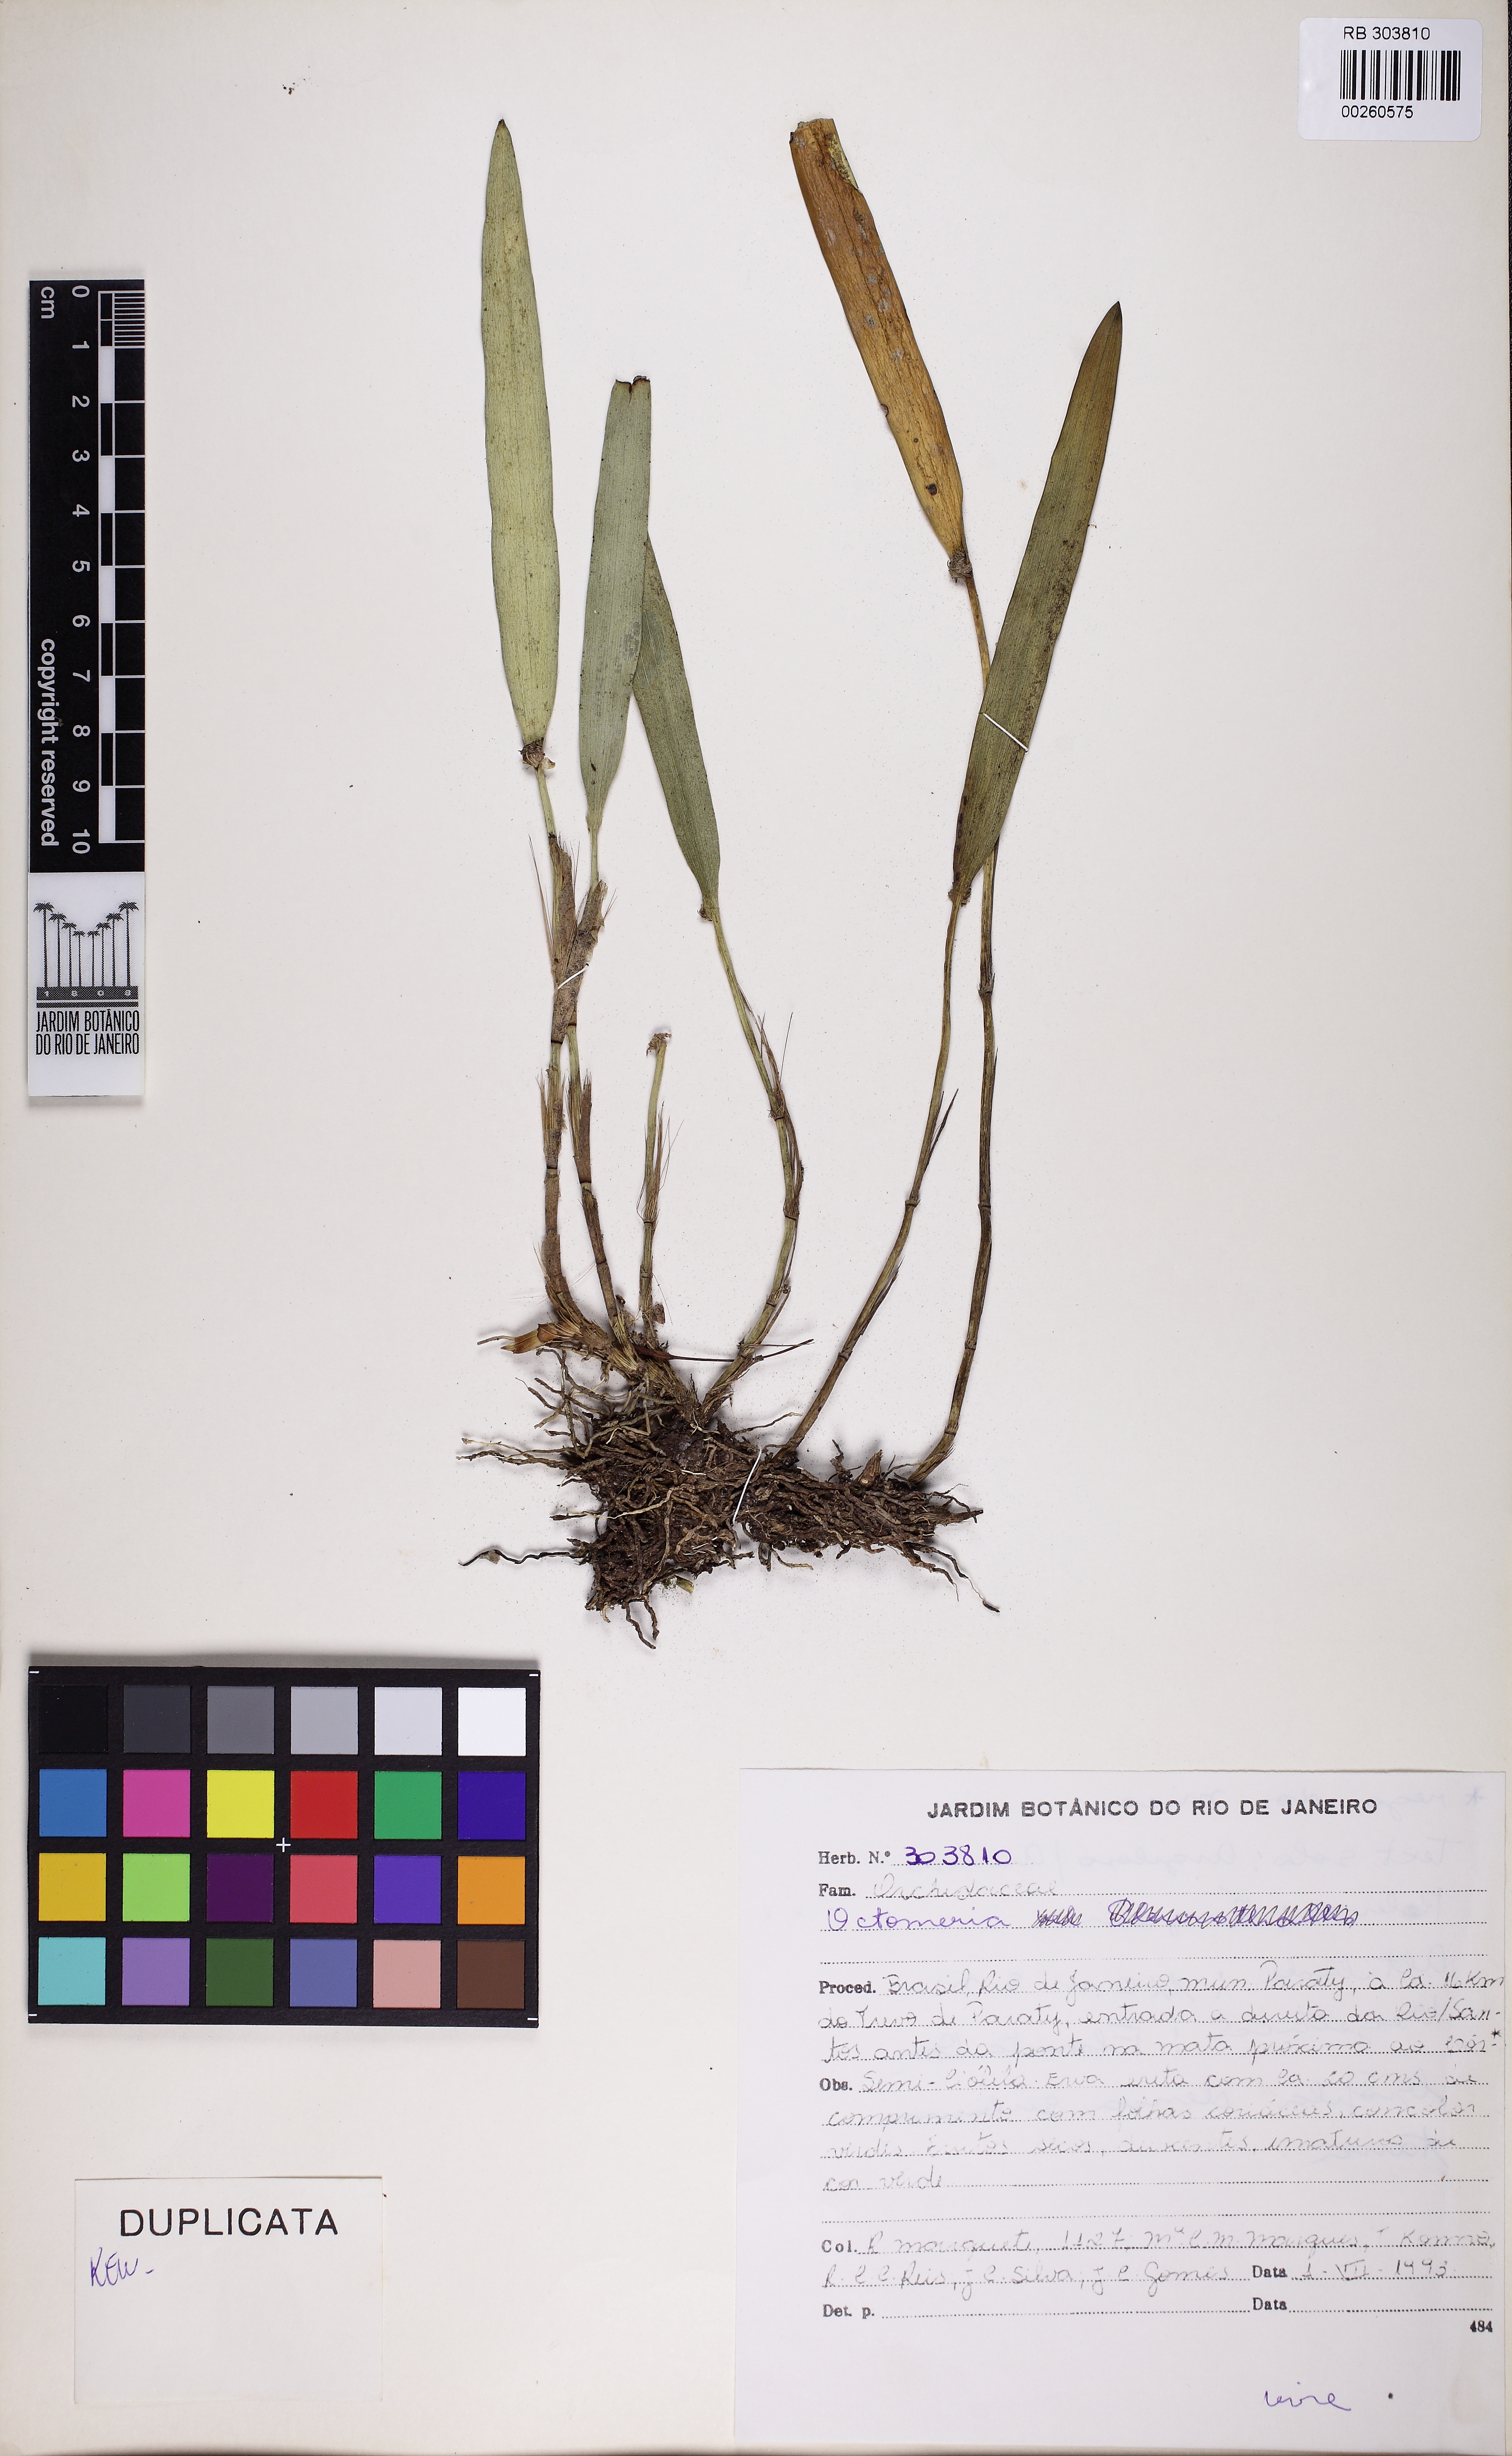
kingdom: Plantae
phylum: Tracheophyta
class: Liliopsida
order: Asparagales
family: Orchidaceae
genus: Octomeria
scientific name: Octomeria
